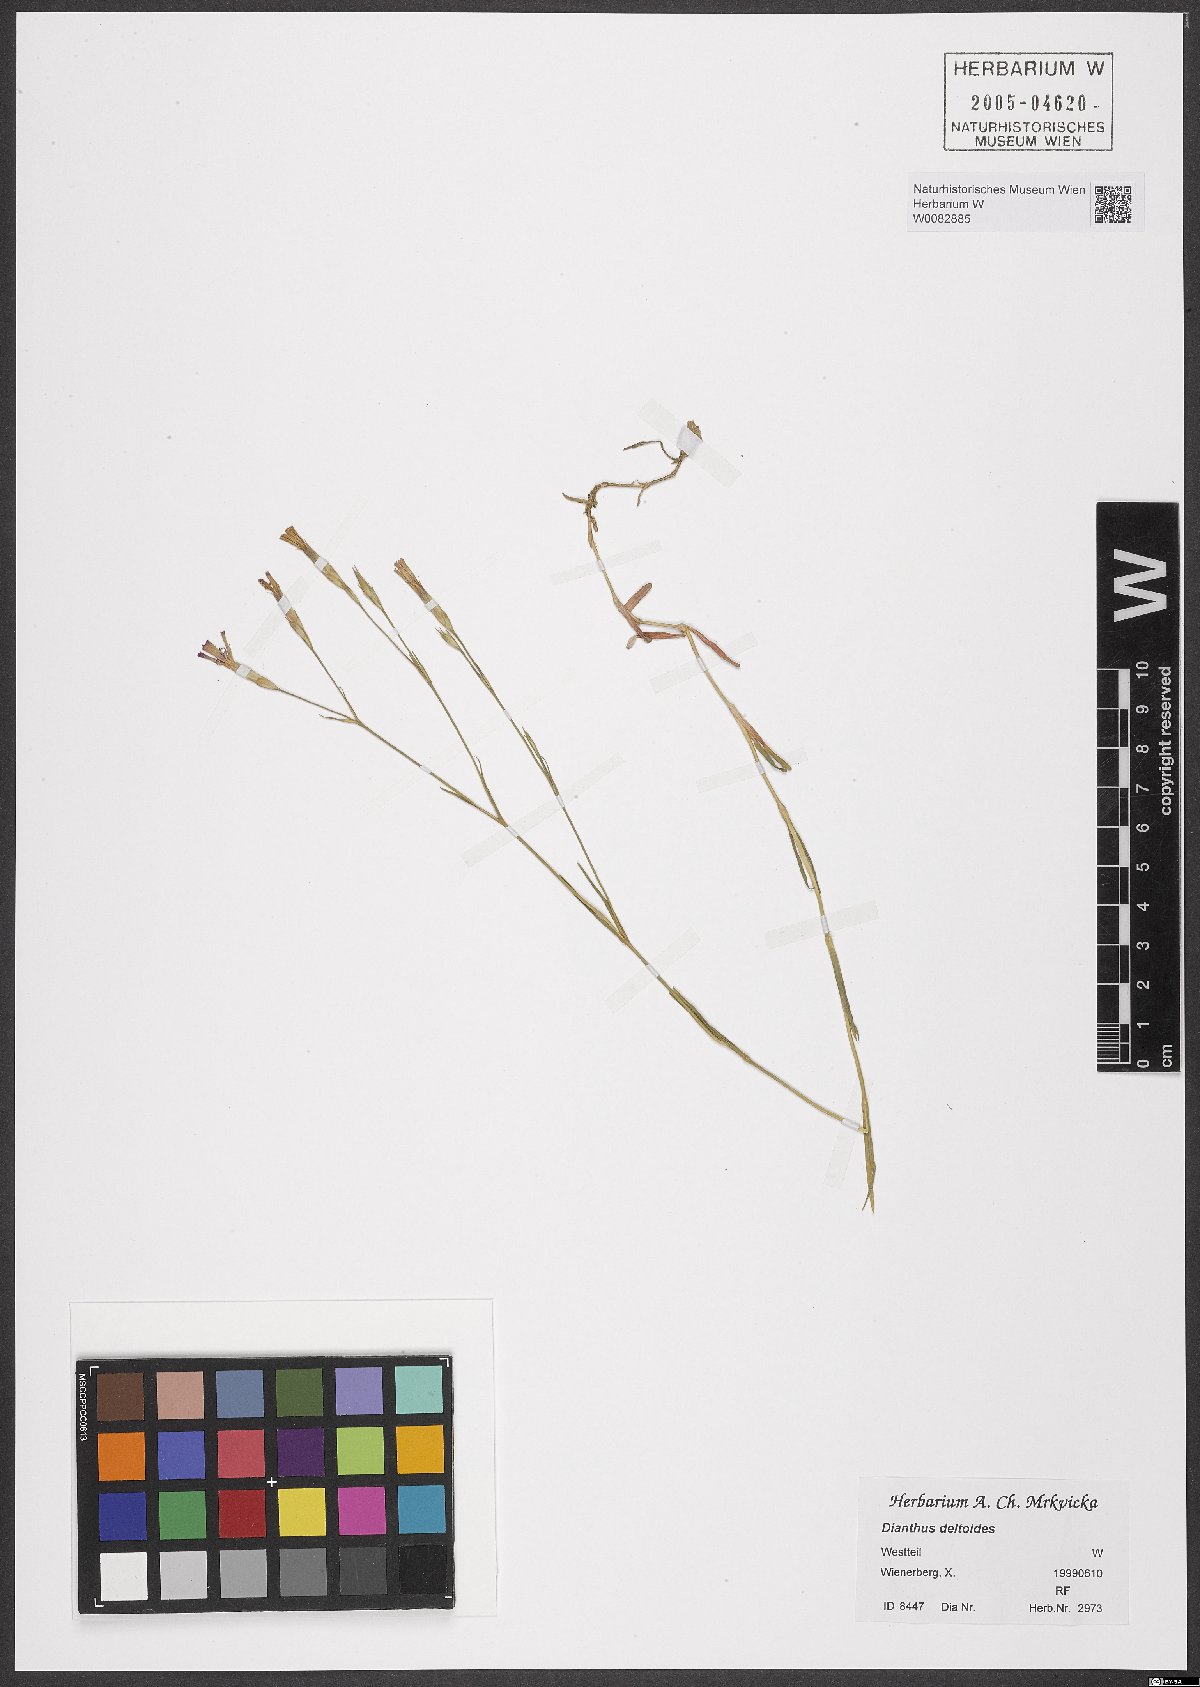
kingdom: Plantae
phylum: Tracheophyta
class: Magnoliopsida
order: Caryophyllales
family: Caryophyllaceae
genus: Dianthus
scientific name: Dianthus deltoides
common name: Maiden pink
